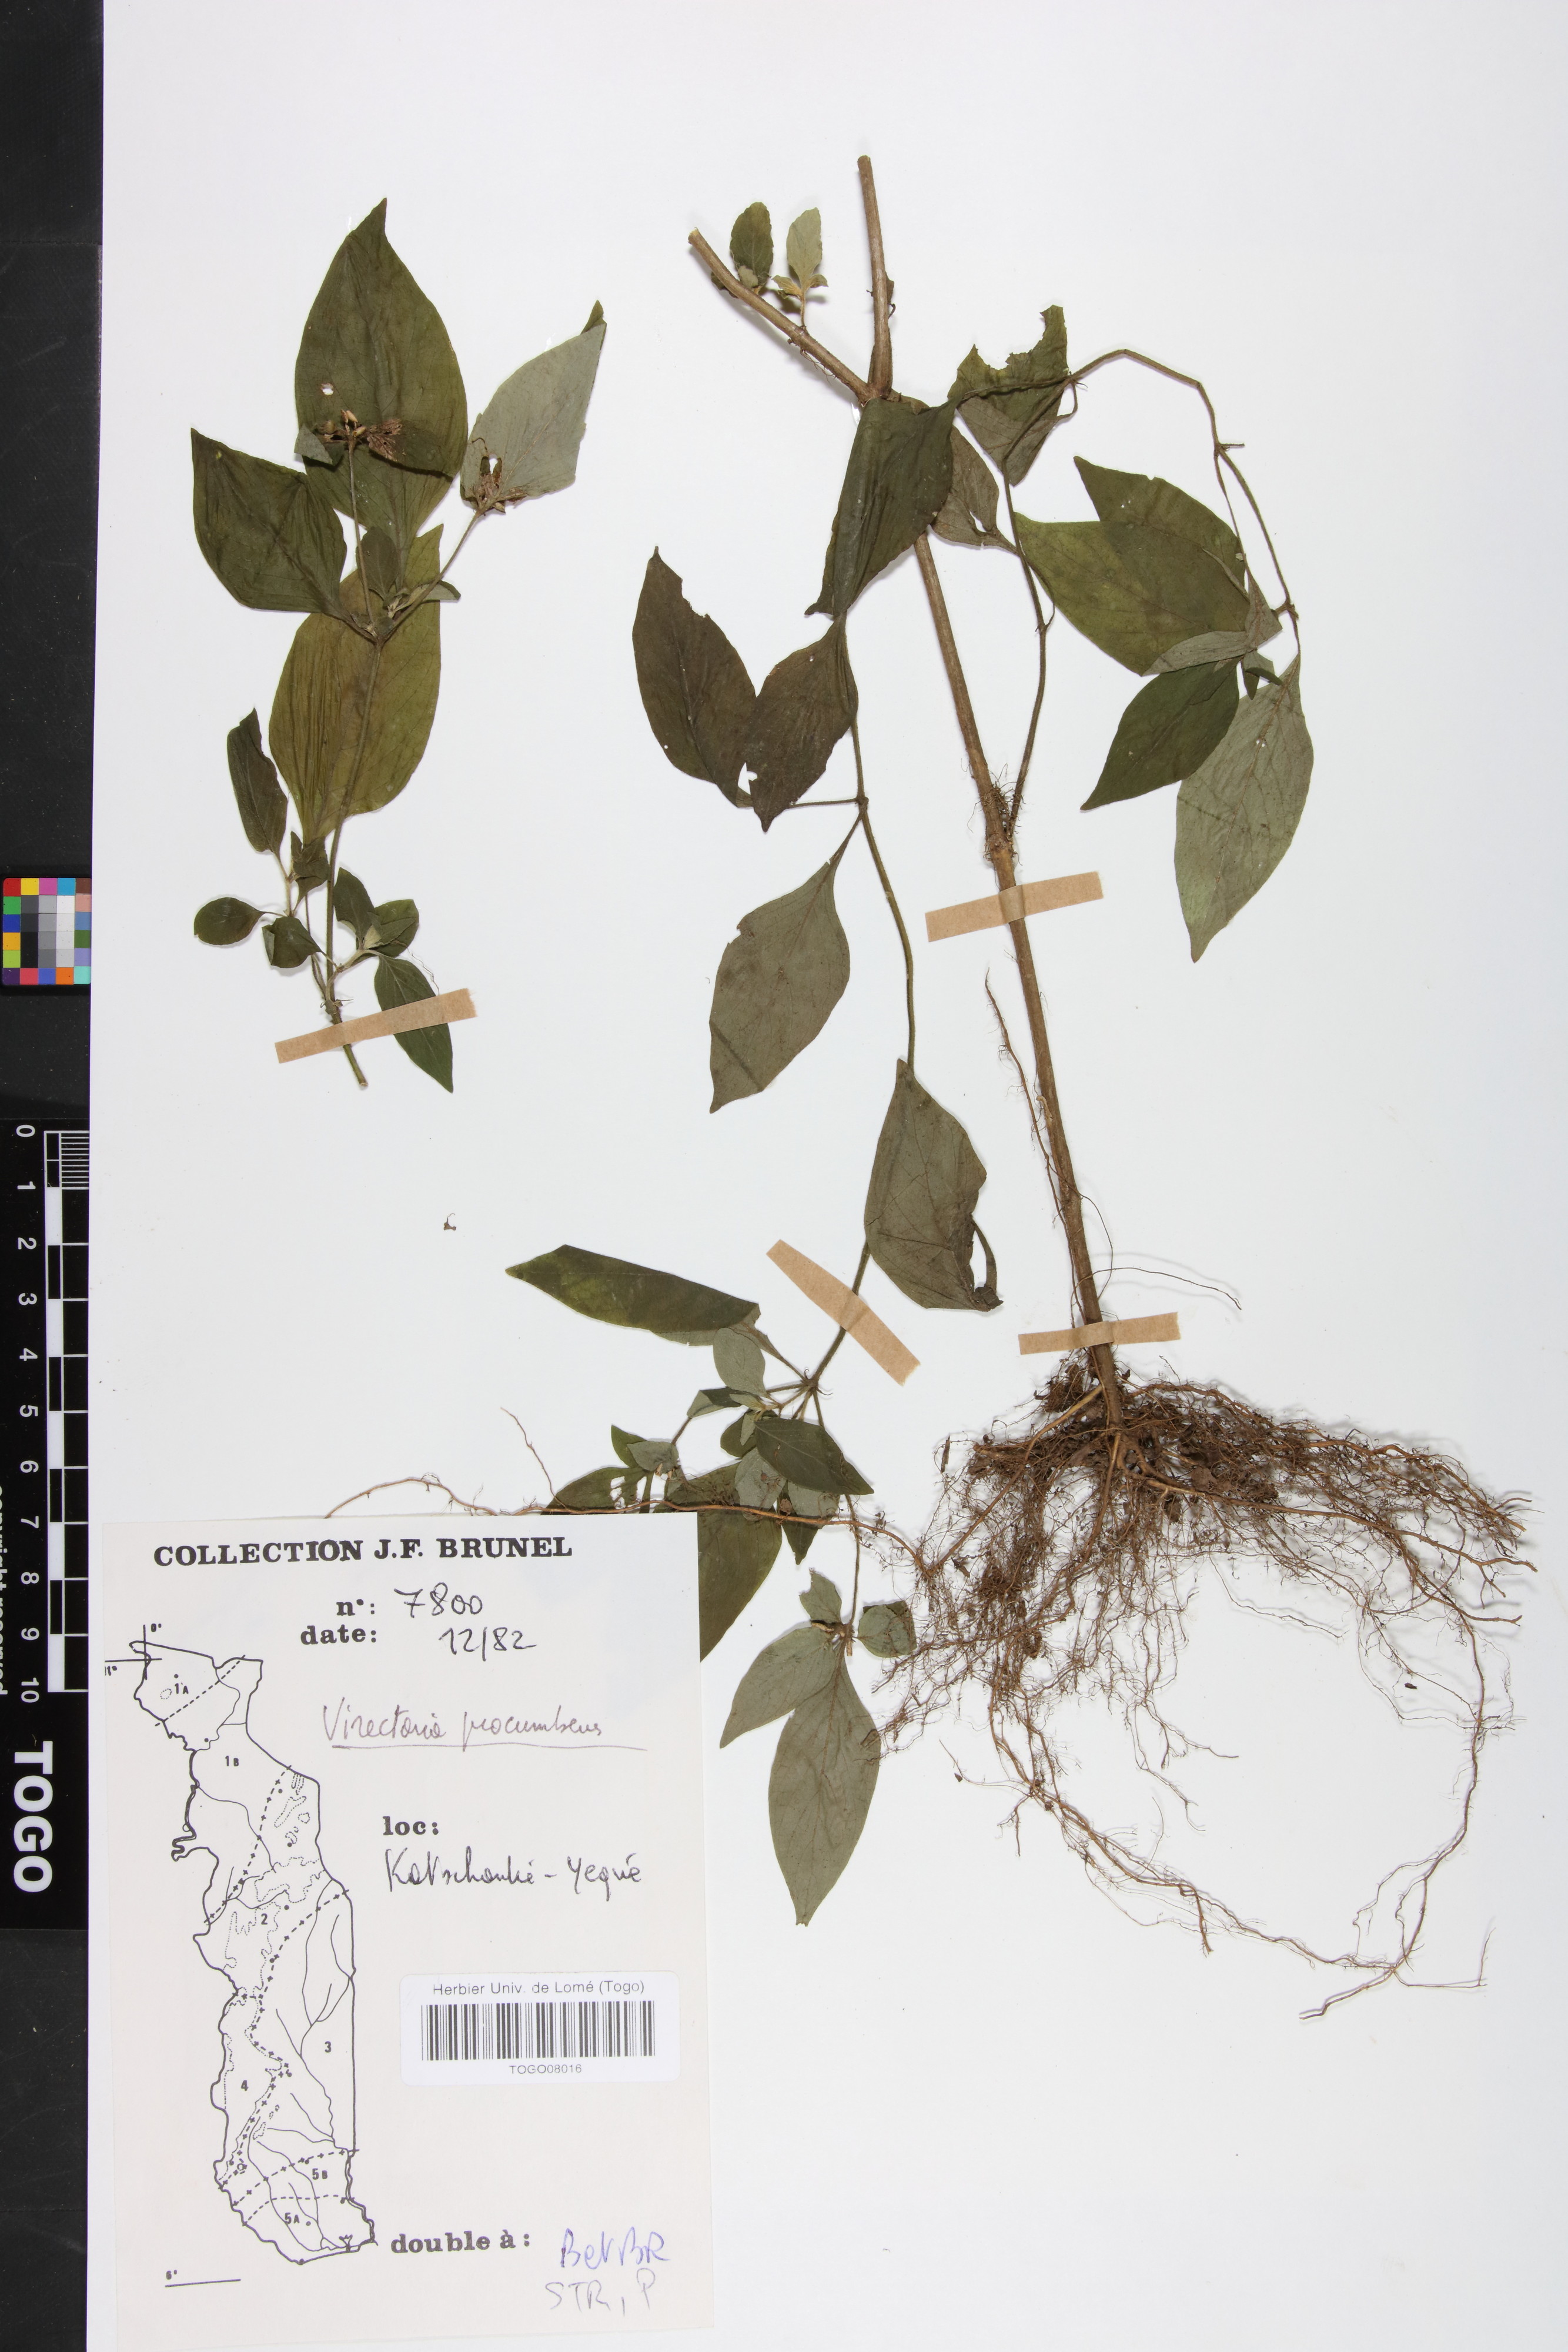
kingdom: Plantae
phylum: Tracheophyta
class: Magnoliopsida
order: Gentianales
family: Rubiaceae
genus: Virectaria
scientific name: Virectaria procumbens
